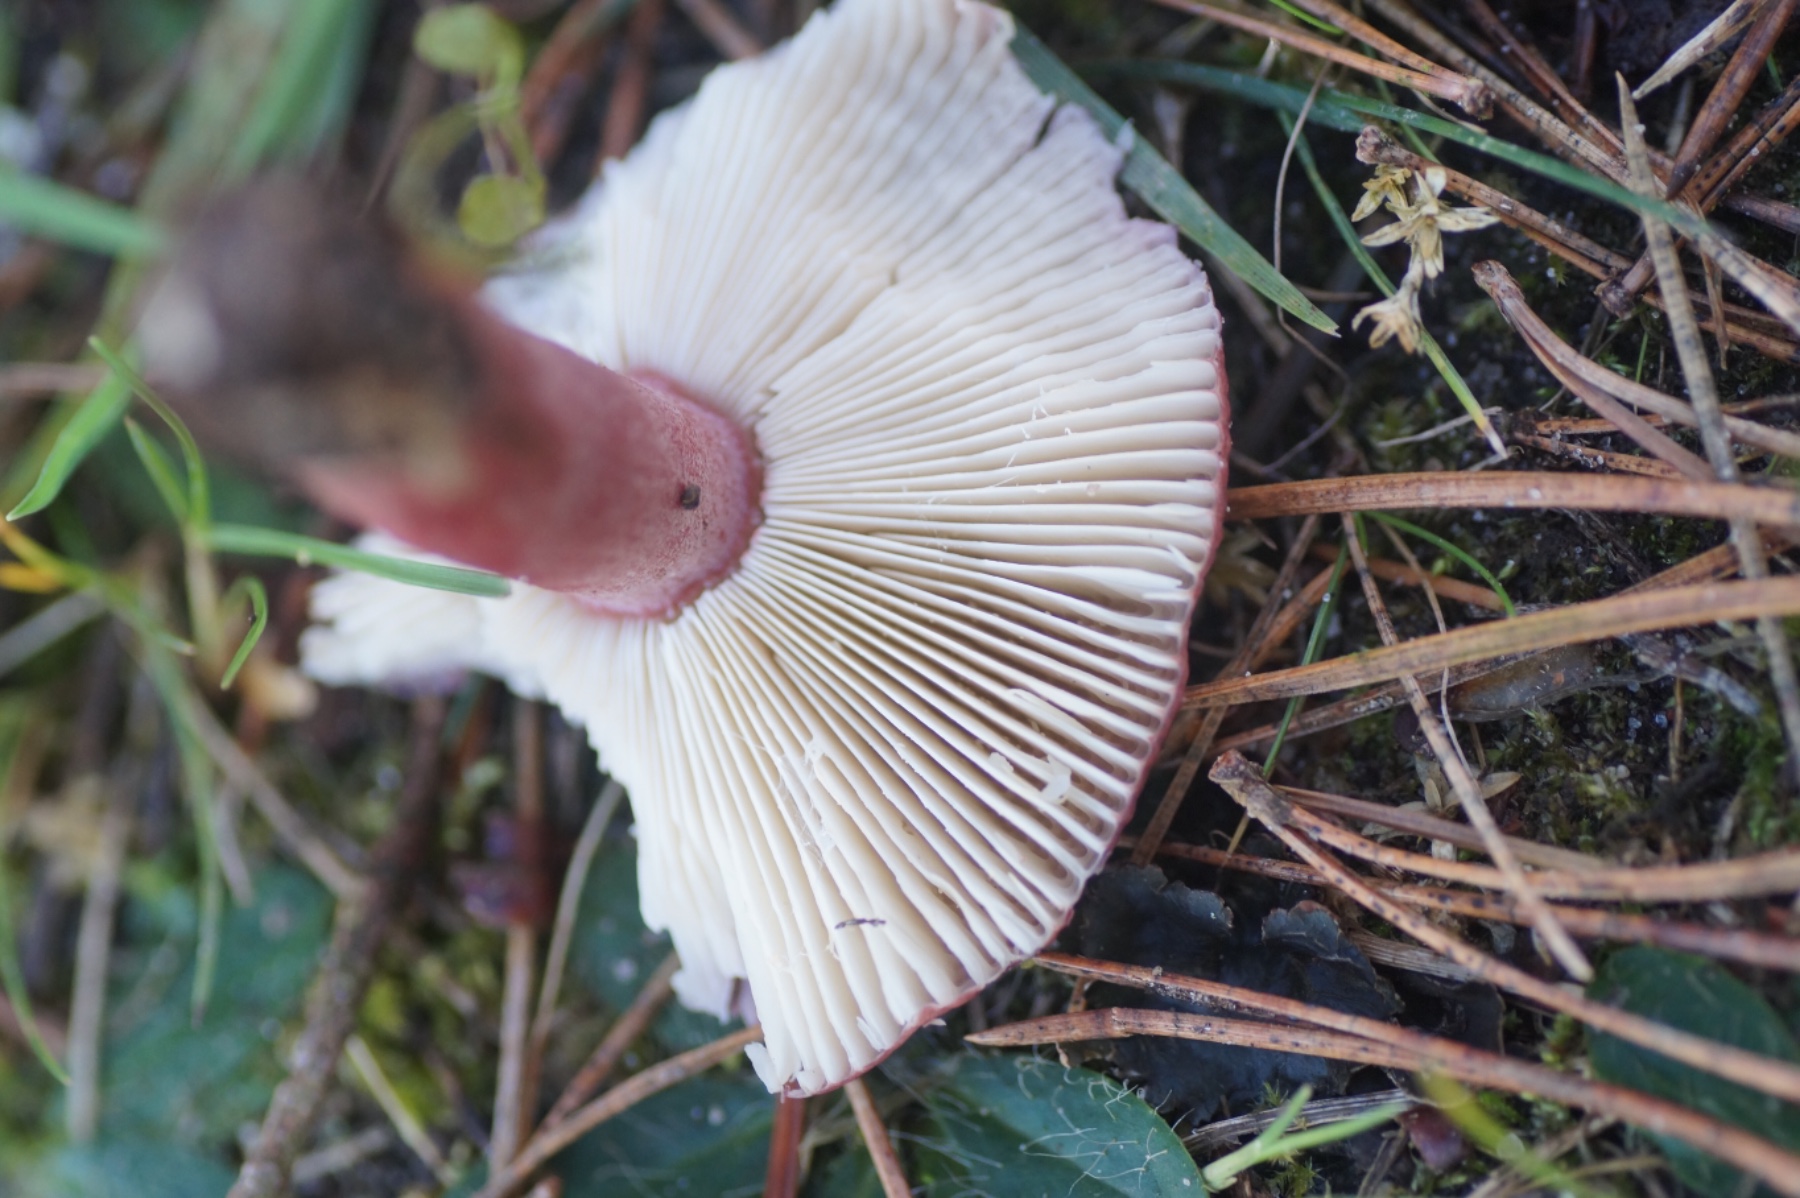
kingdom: Fungi
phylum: Basidiomycota
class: Agaricomycetes
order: Russulales
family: Russulaceae
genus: Russula
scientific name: Russula queletii
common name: Quélets skørhat
